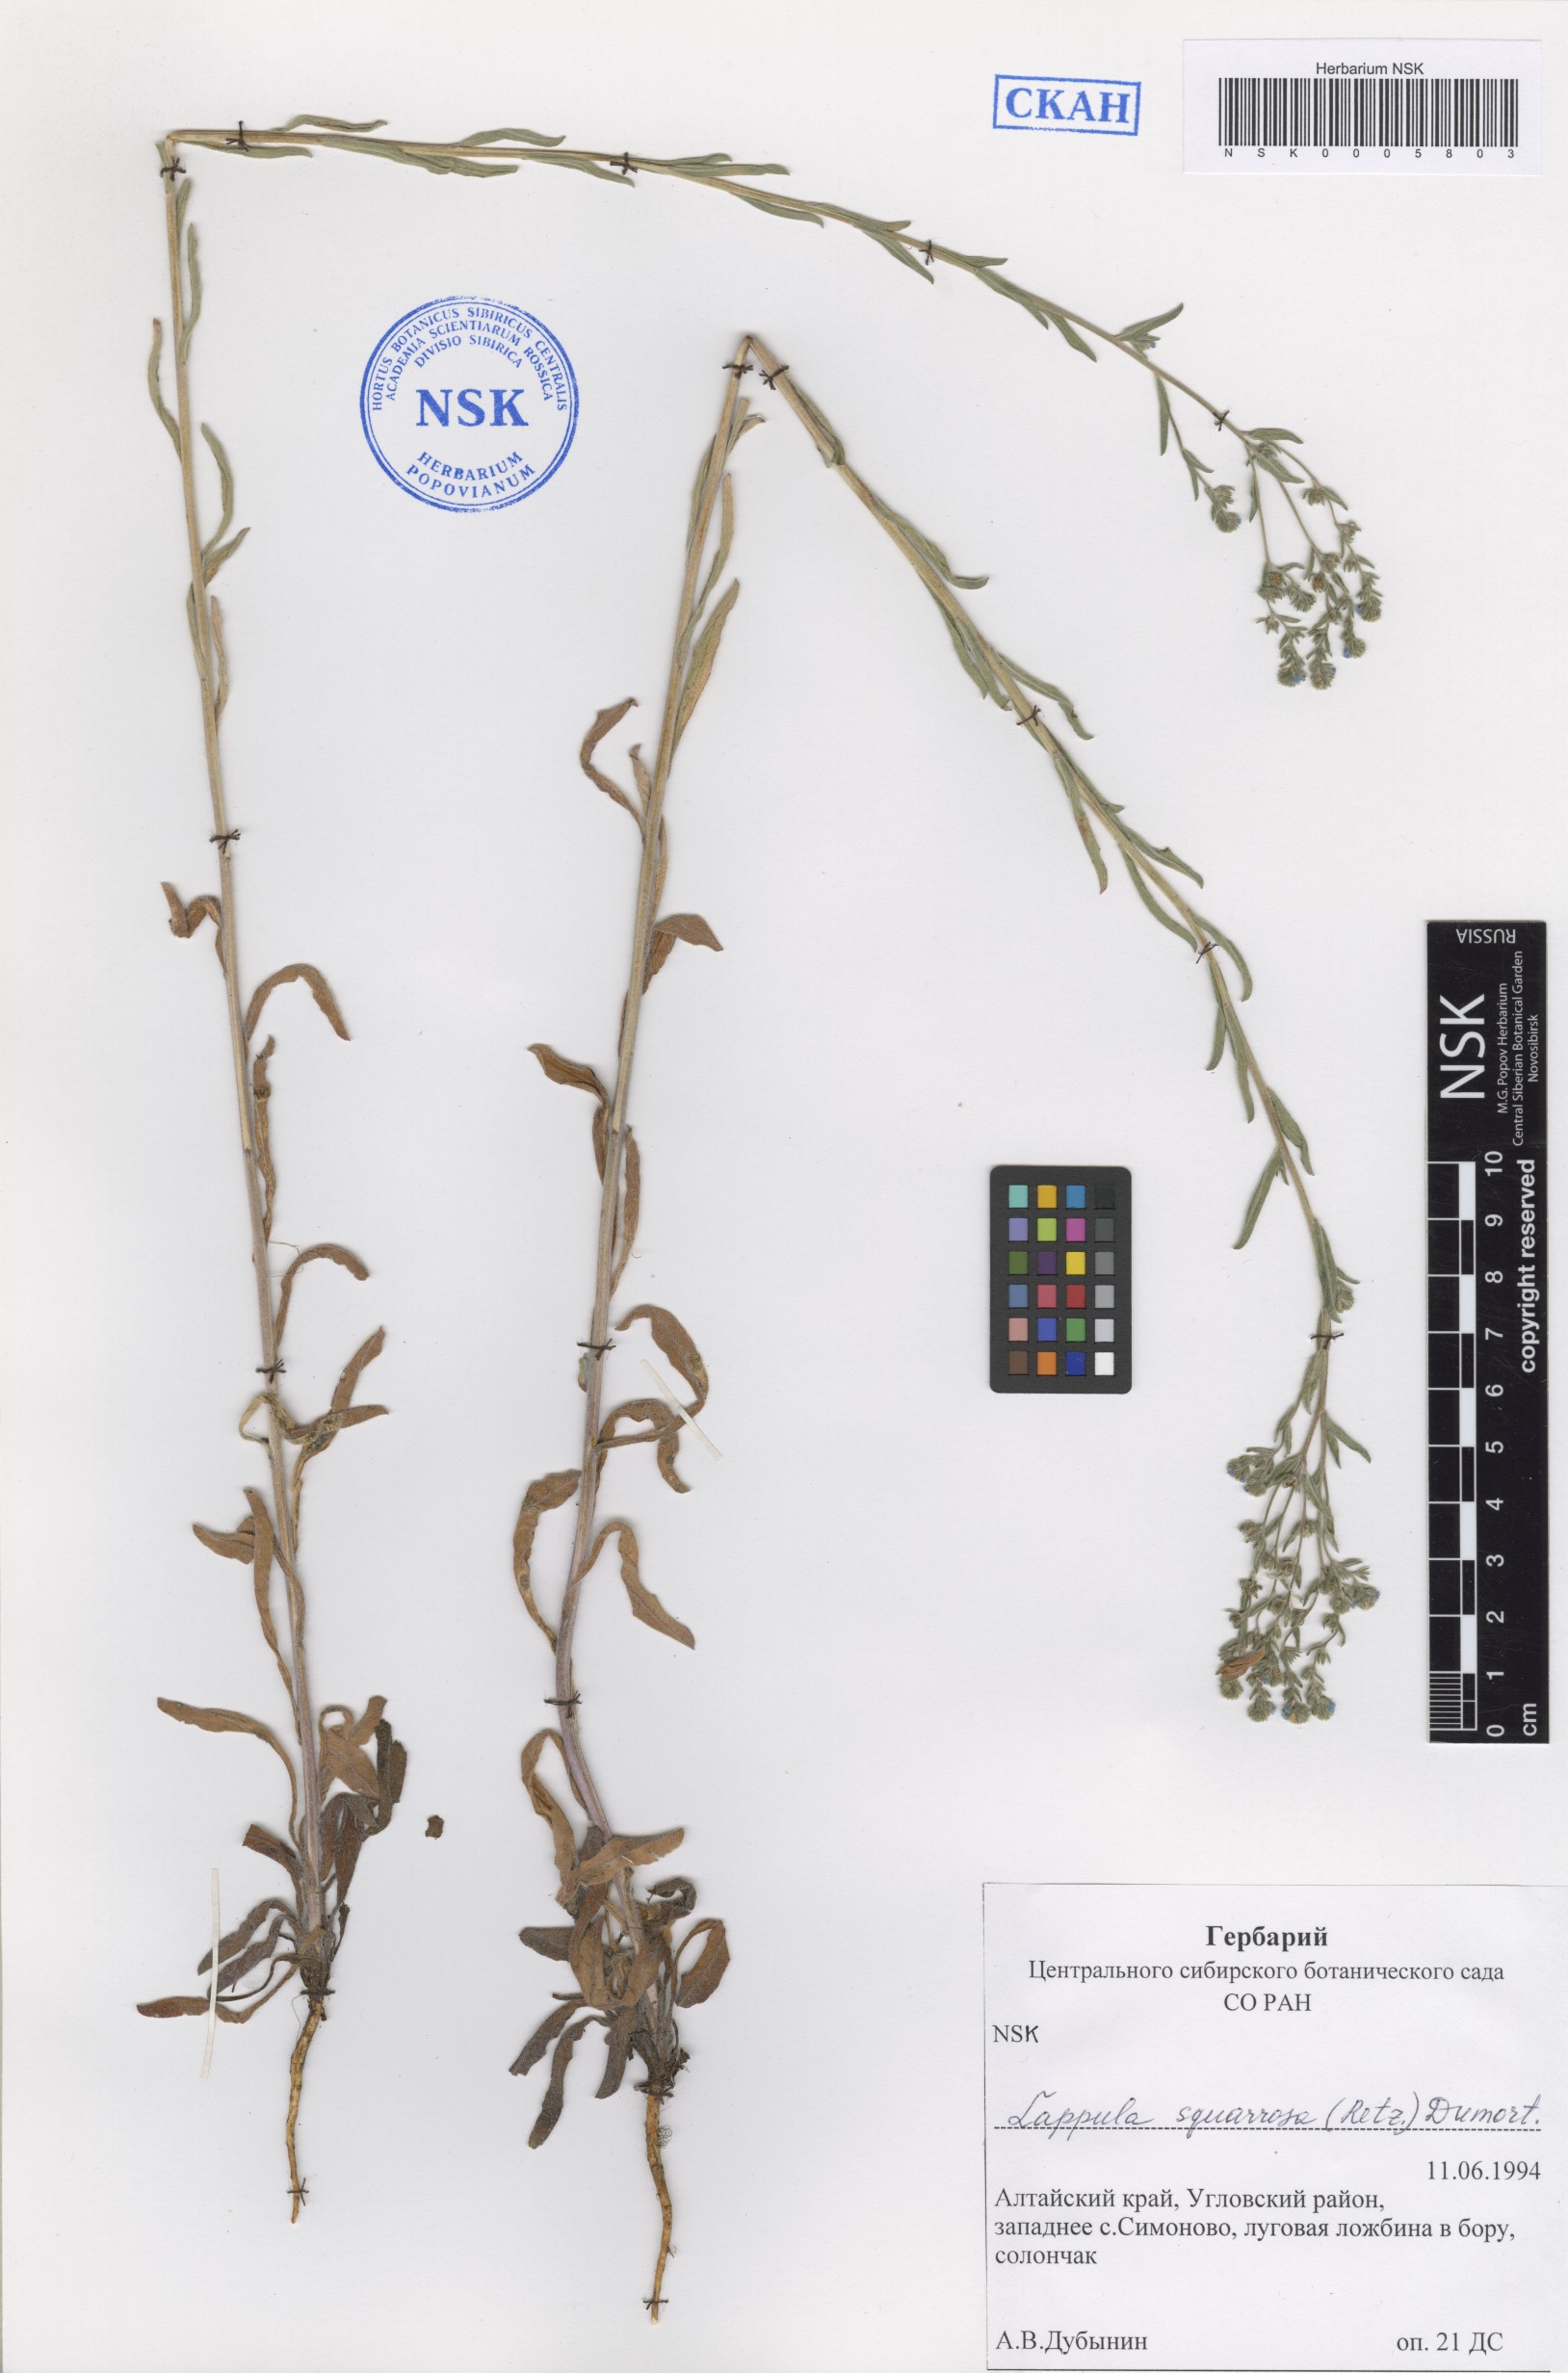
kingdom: Plantae
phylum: Tracheophyta
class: Magnoliopsida
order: Boraginales
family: Boraginaceae
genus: Lappula
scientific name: Lappula squarrosa
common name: European stickseed
